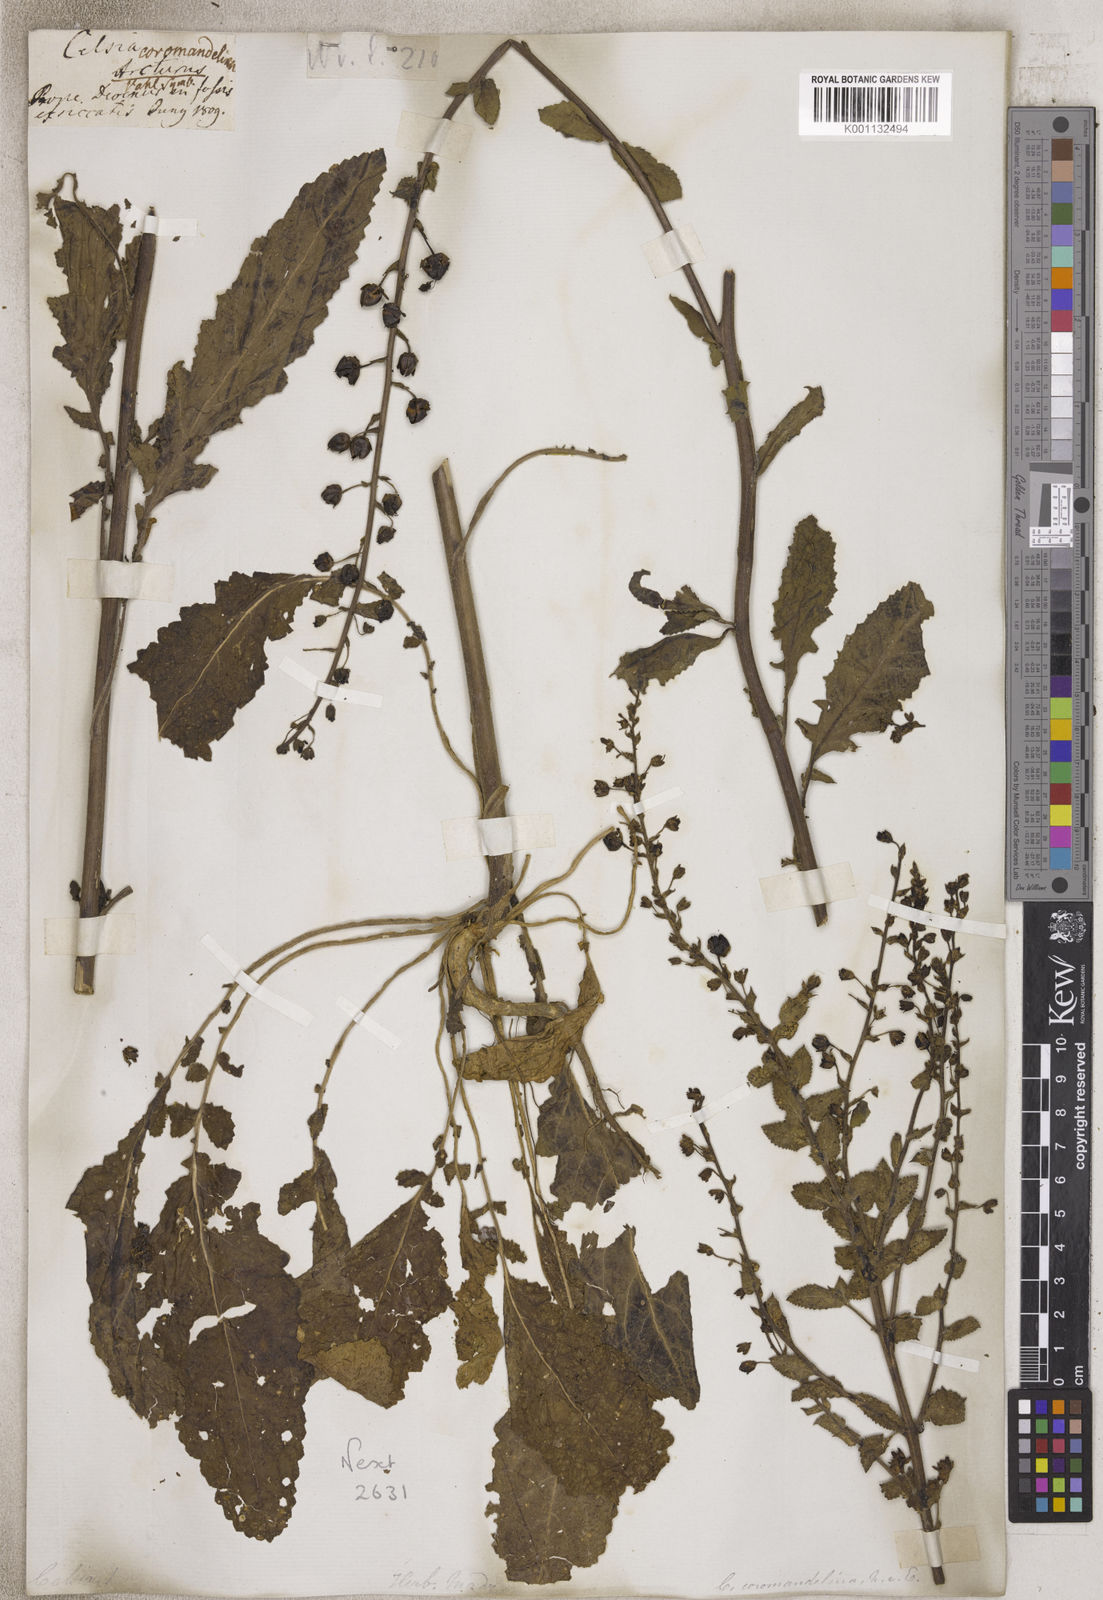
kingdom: Animalia
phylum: Arthropoda
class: Insecta
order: Lepidoptera
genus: Celsia
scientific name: Celsia
